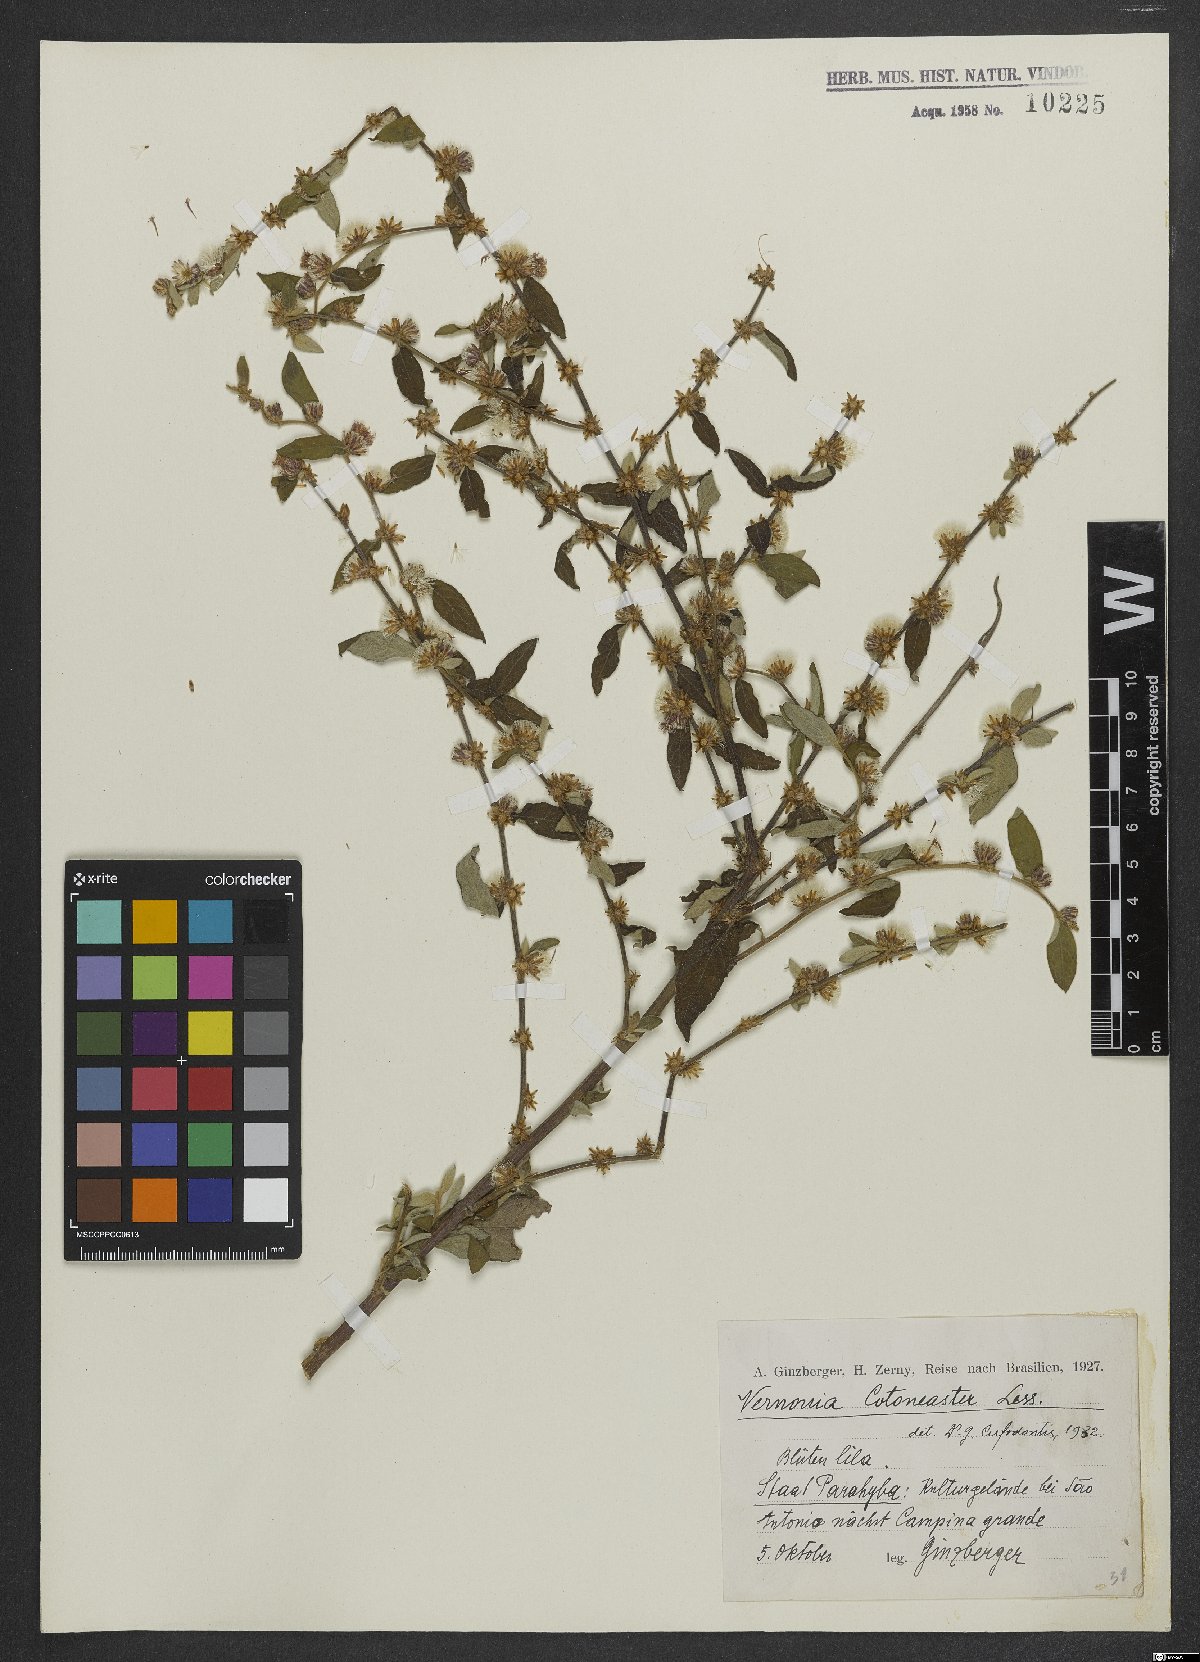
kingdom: Plantae
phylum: Tracheophyta
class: Magnoliopsida
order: Asterales
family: Asteraceae
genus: Lepidaploa
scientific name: Lepidaploa cotoneaster
